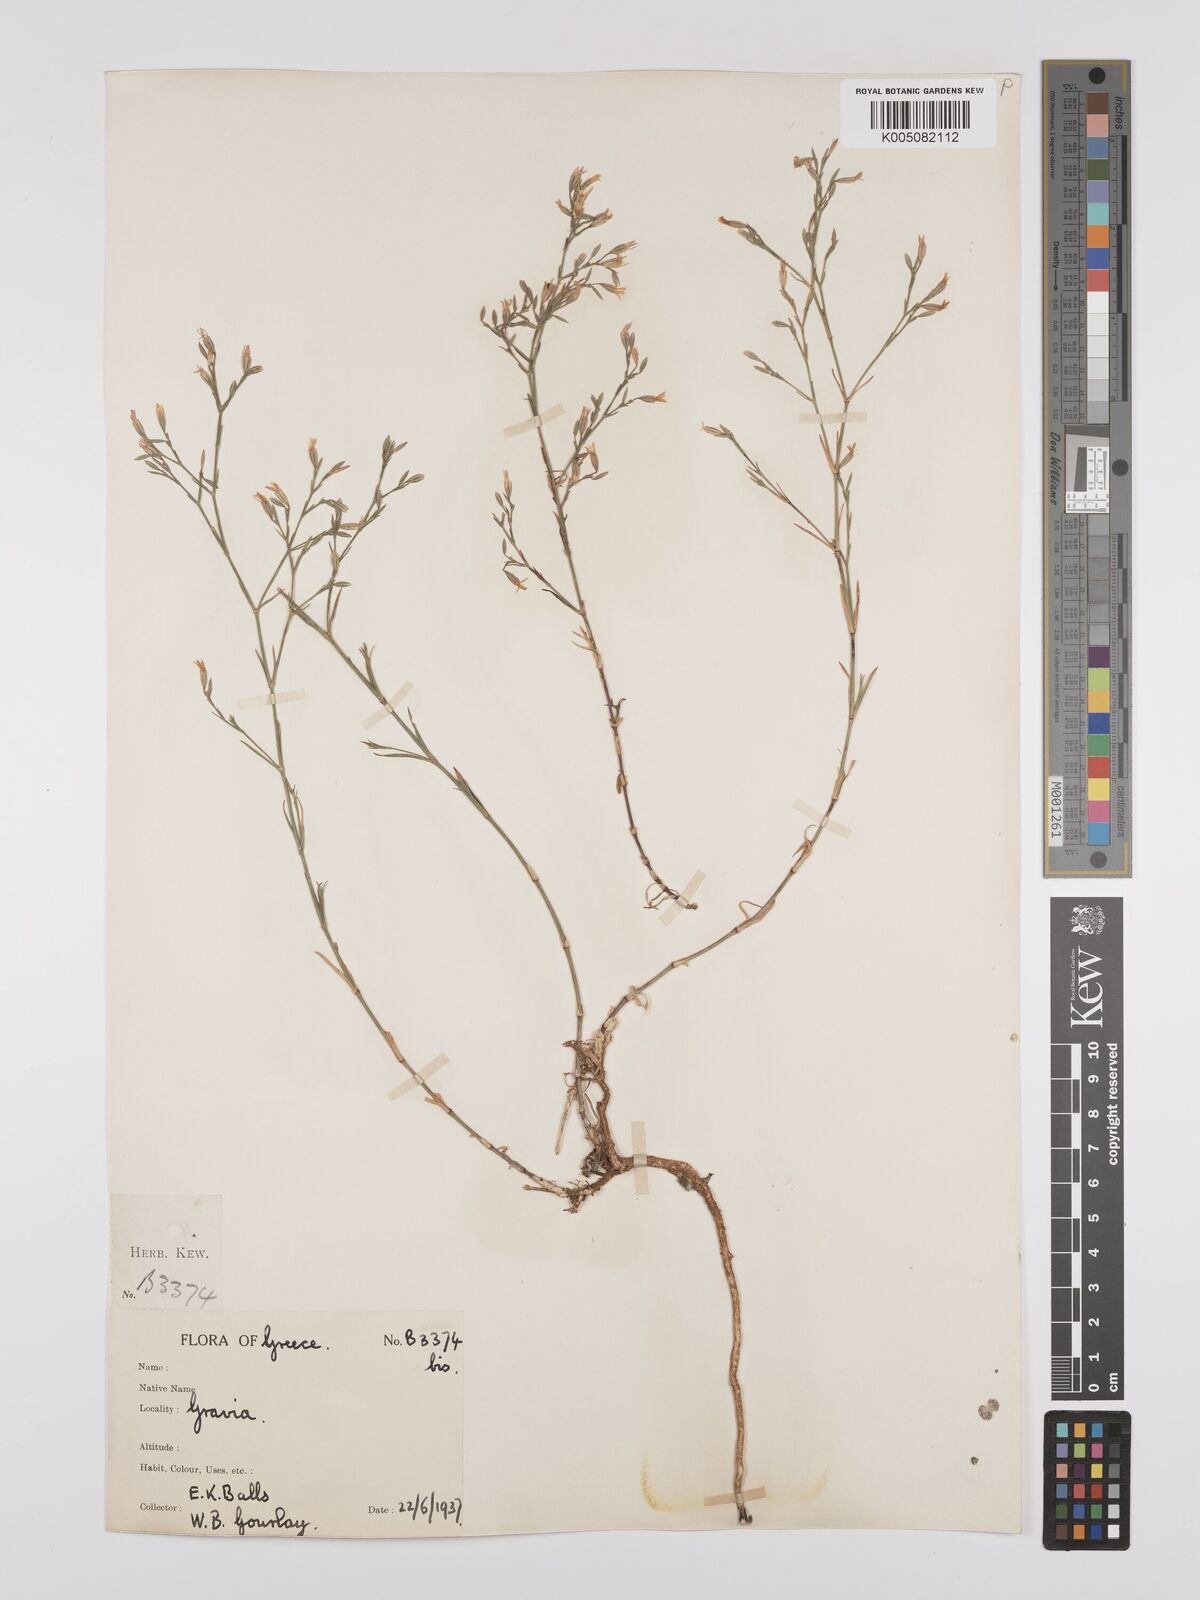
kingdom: Plantae
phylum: Tracheophyta
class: Magnoliopsida
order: Caryophyllales
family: Caryophyllaceae
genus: Dianthus
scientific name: Dianthus illyricus
